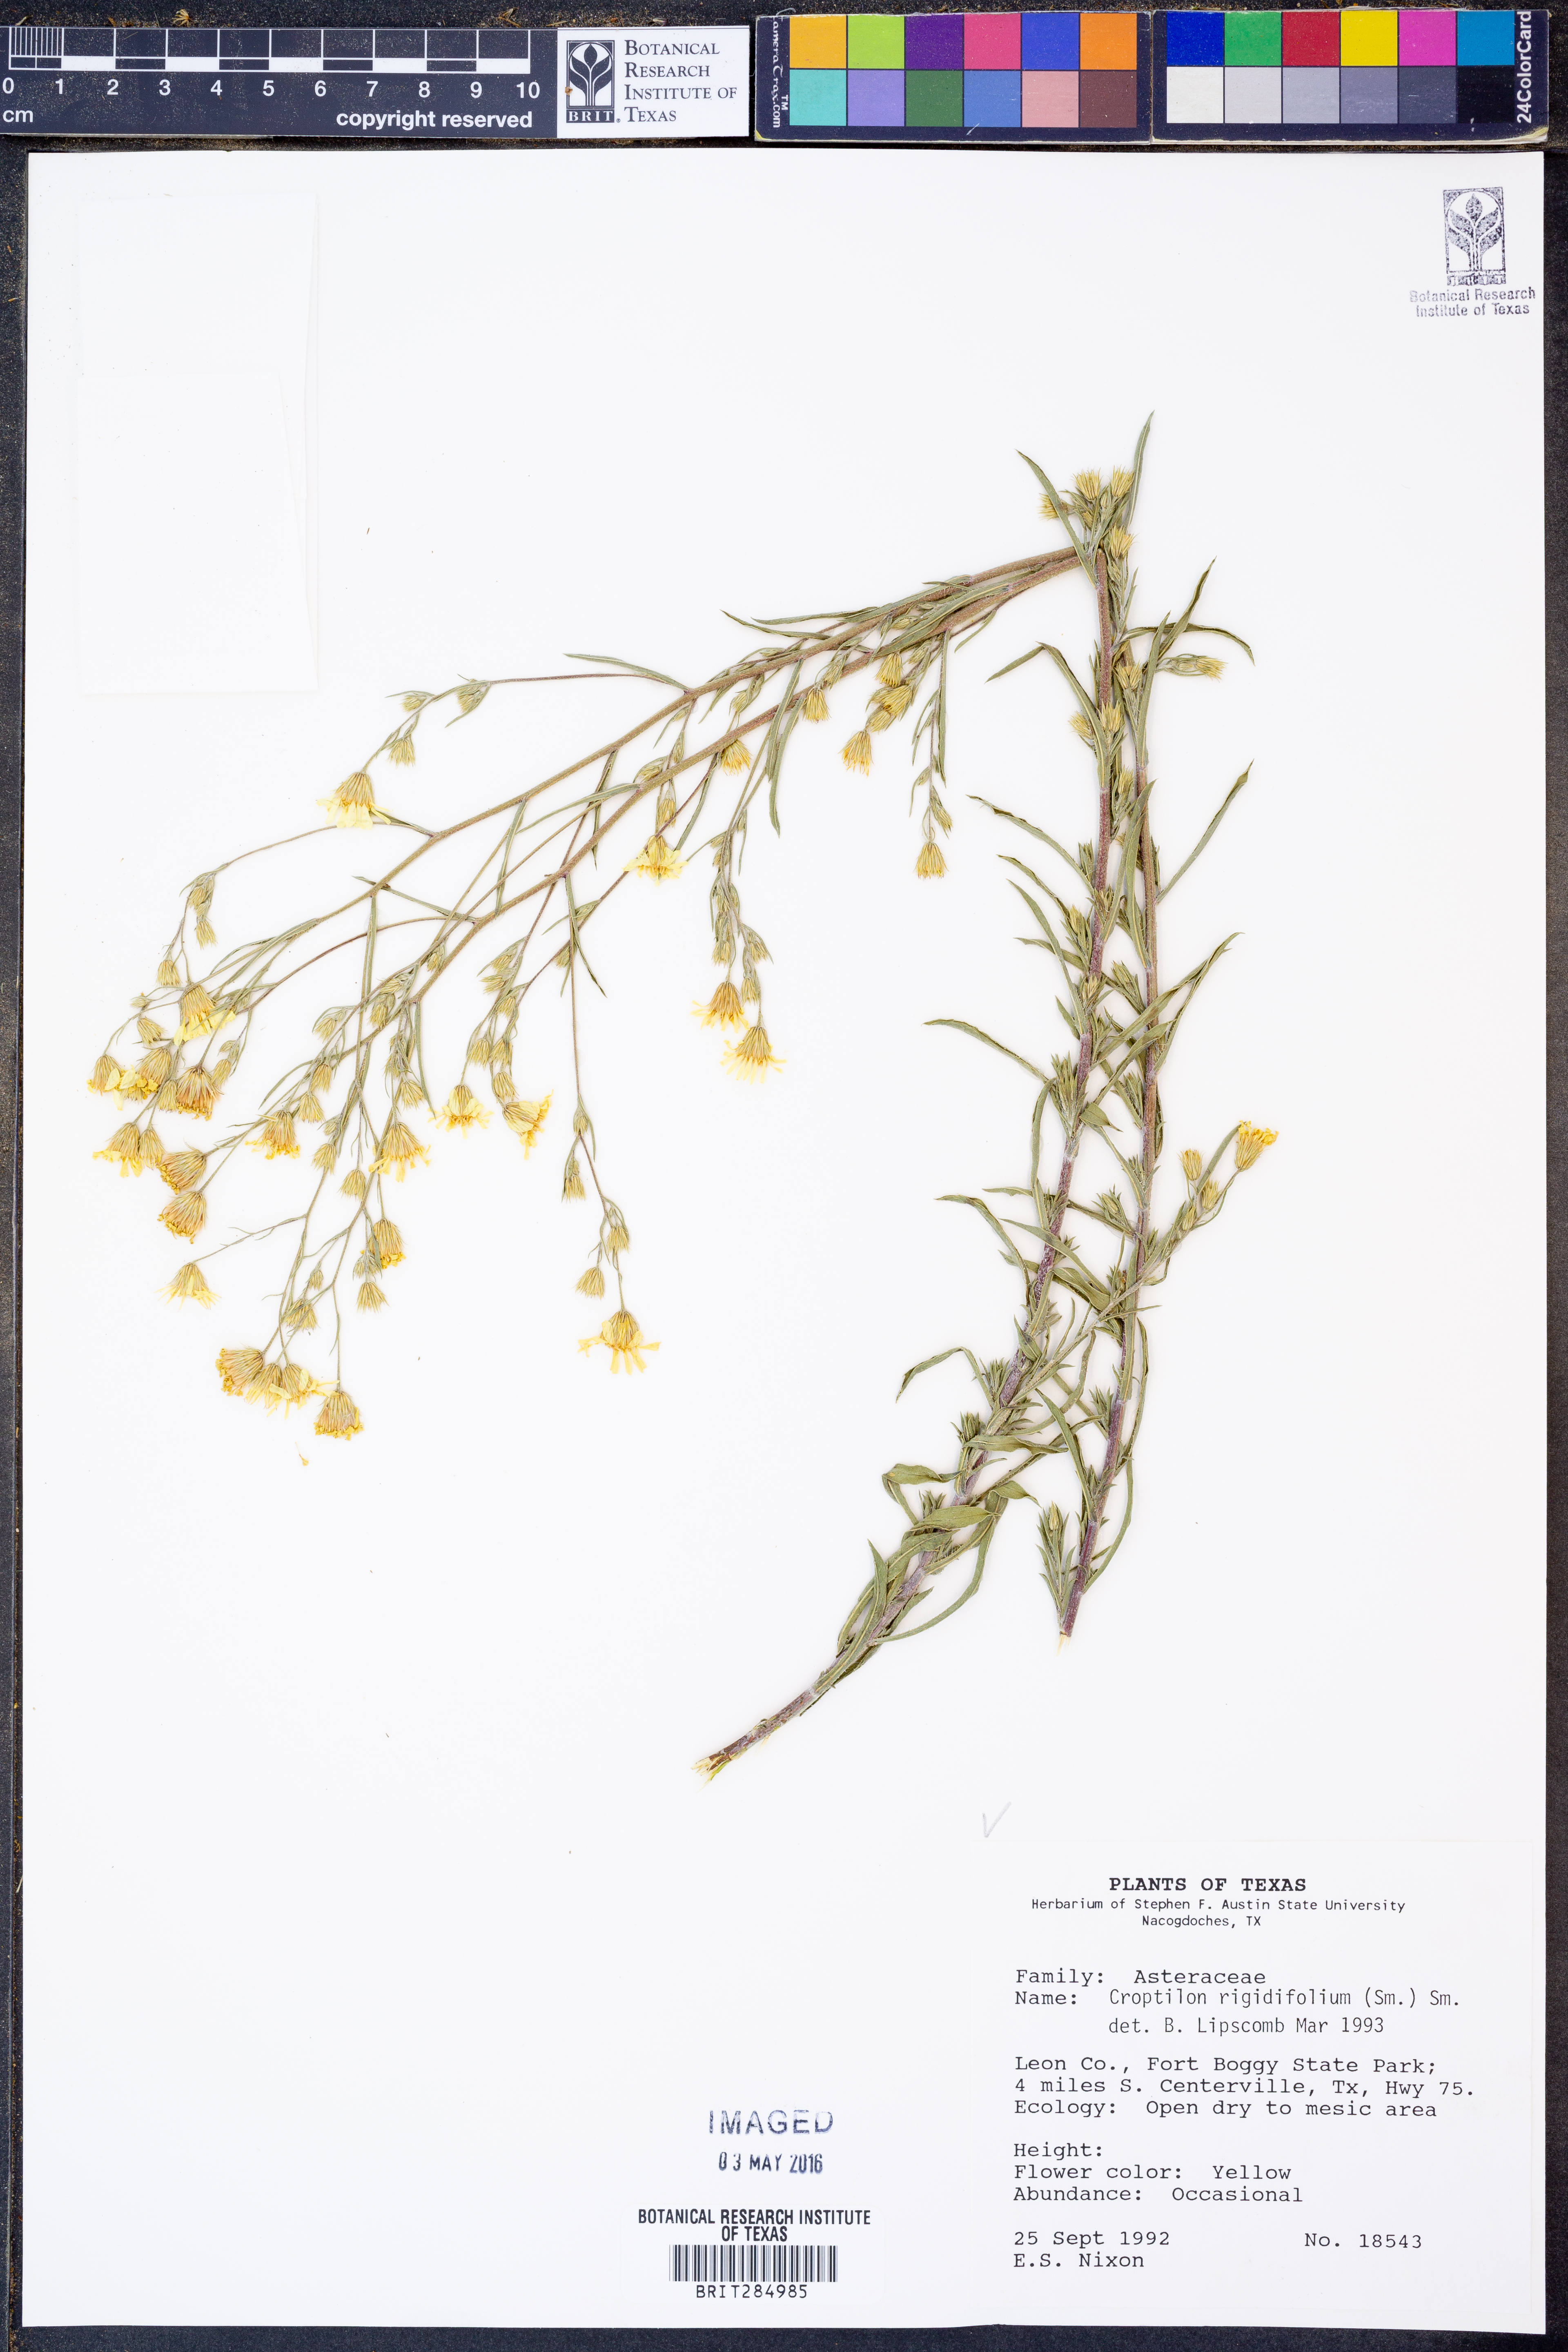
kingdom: Plantae
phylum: Tracheophyta
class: Magnoliopsida
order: Asterales
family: Asteraceae
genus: Croptilon
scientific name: Croptilon rigidifolium
